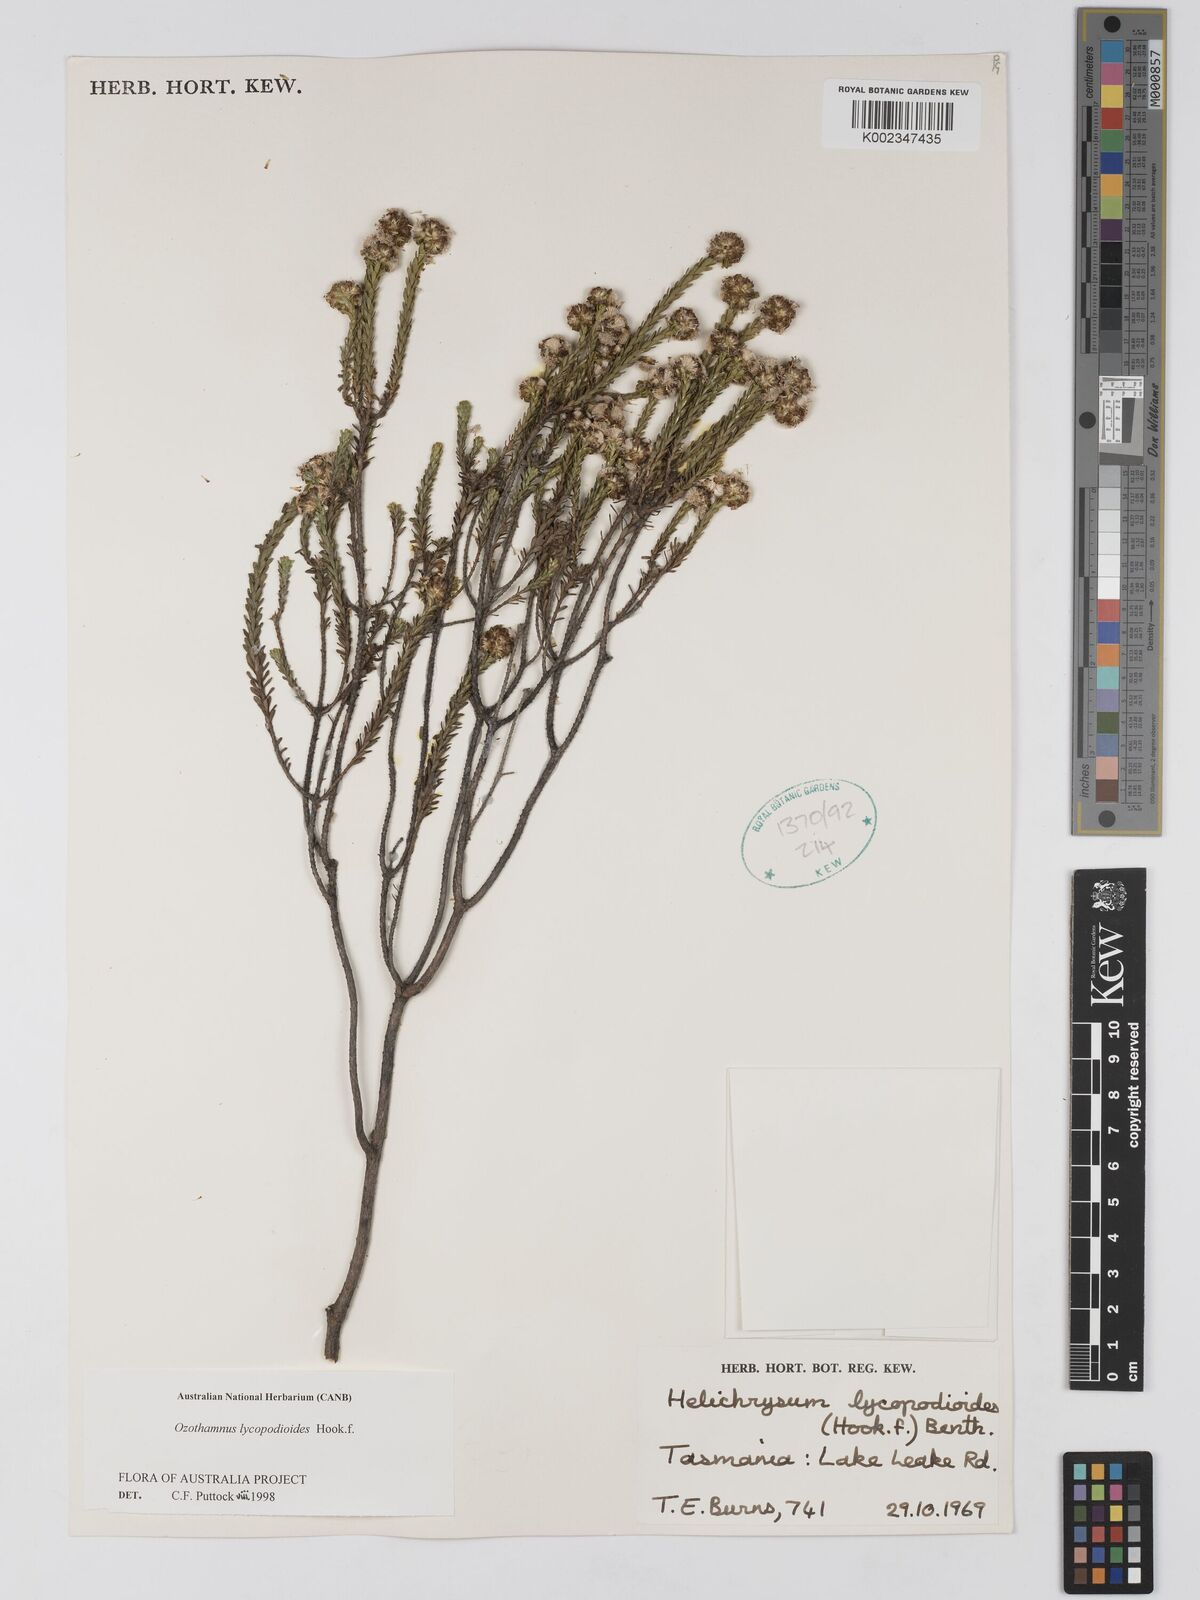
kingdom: Plantae
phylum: Tracheophyta
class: Magnoliopsida
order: Asterales
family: Asteraceae
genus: Ozothamnus
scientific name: Ozothamnus lycopodioides
